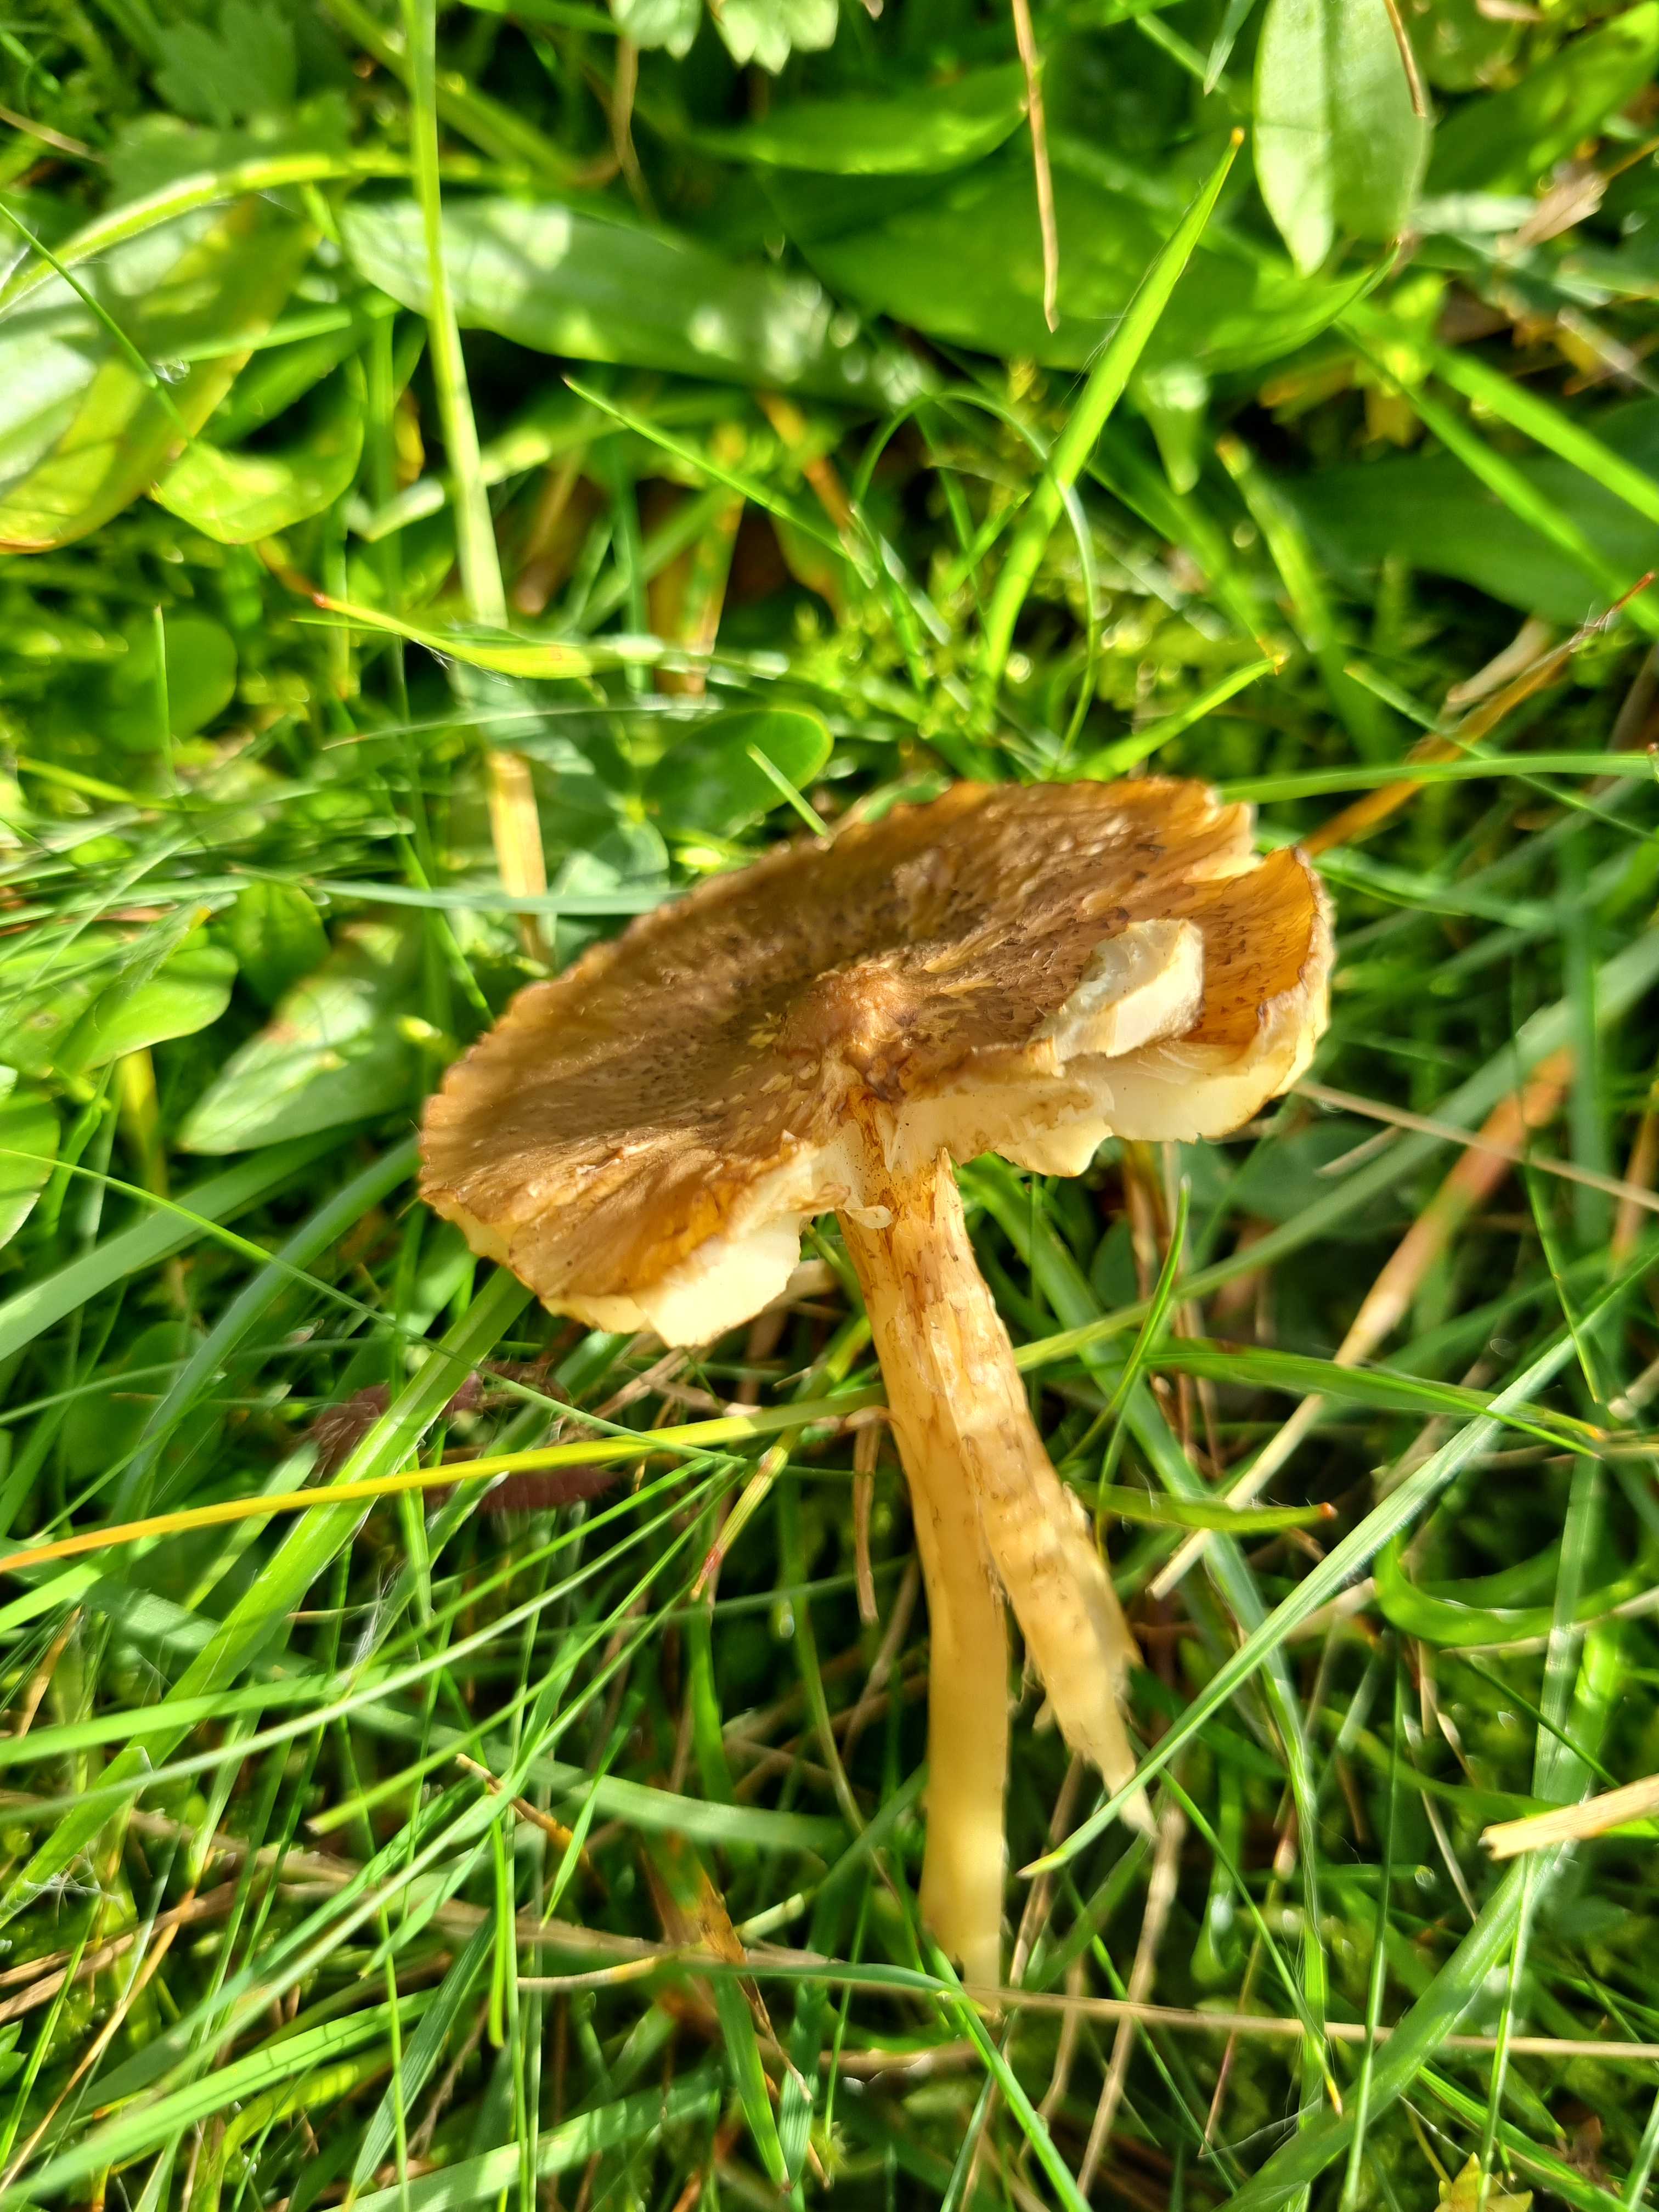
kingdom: Fungi
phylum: Basidiomycota
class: Agaricomycetes
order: Agaricales
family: Hygrophoraceae
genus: Hygrocybe
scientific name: Hygrocybe ingrata
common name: Jensens vokshat
